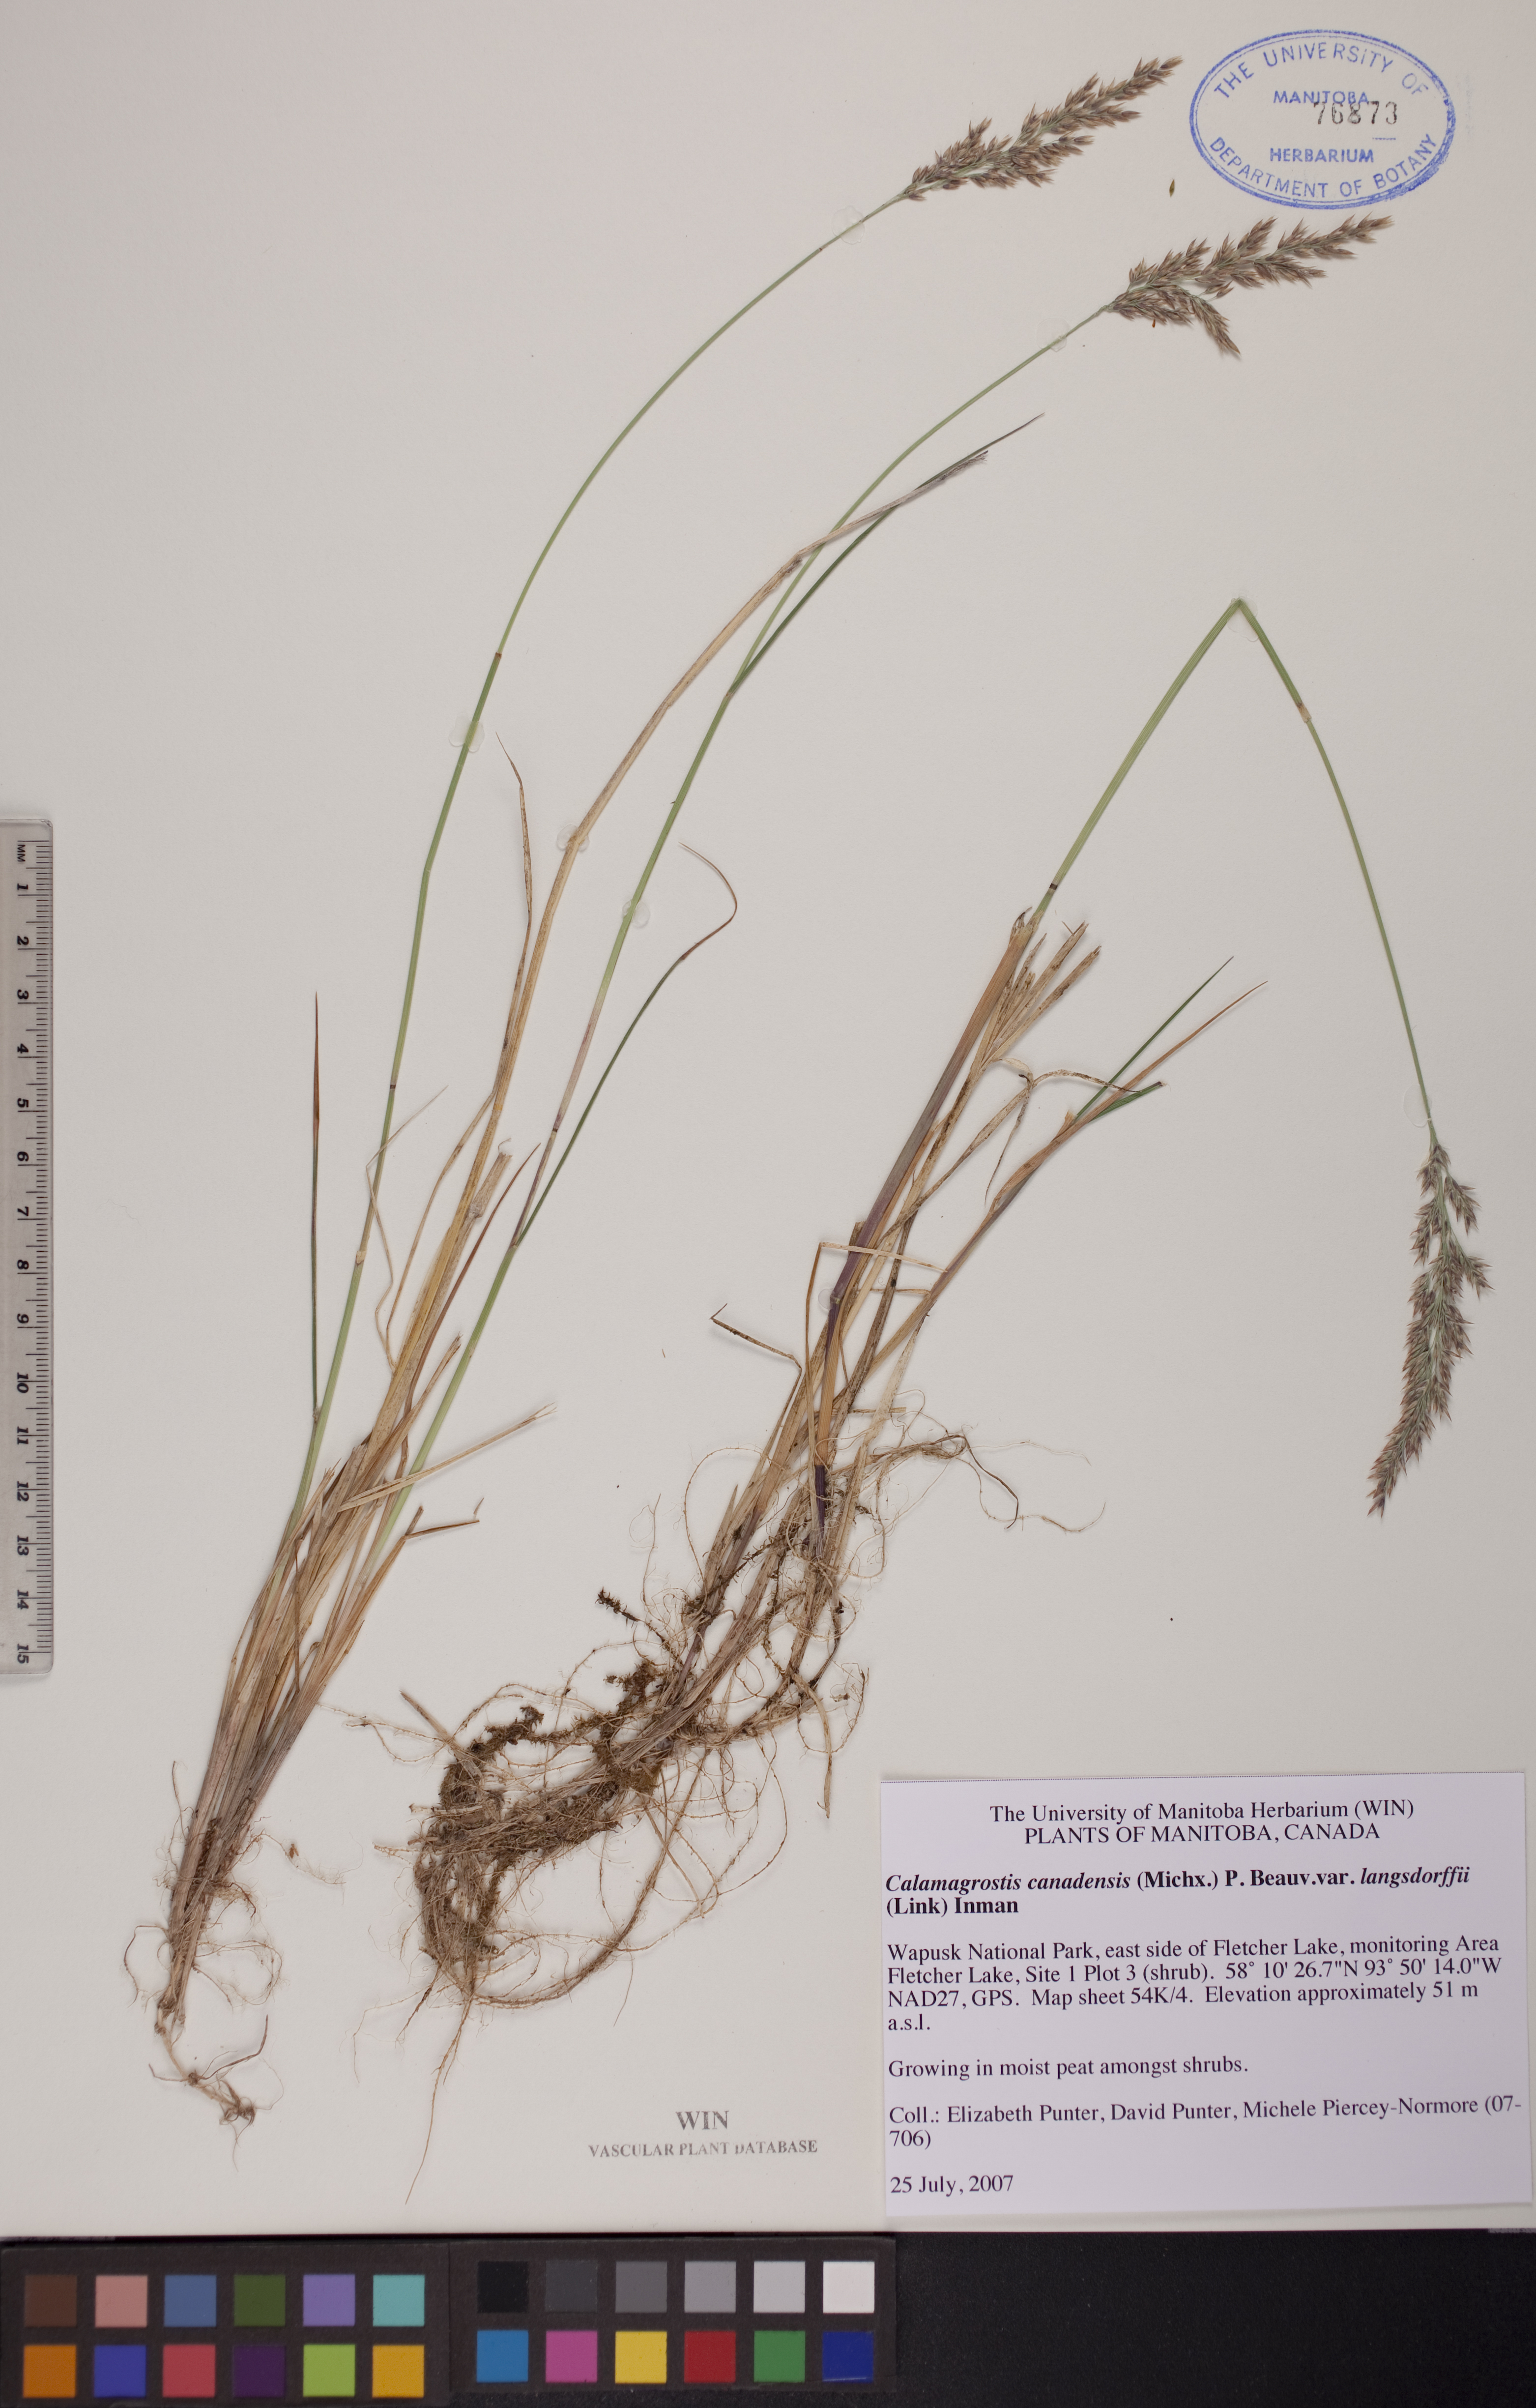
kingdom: Plantae
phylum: Tracheophyta
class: Liliopsida
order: Poales
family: Poaceae
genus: Calamagrostis
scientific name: Calamagrostis purpurea
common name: Scandinavian small-reed
